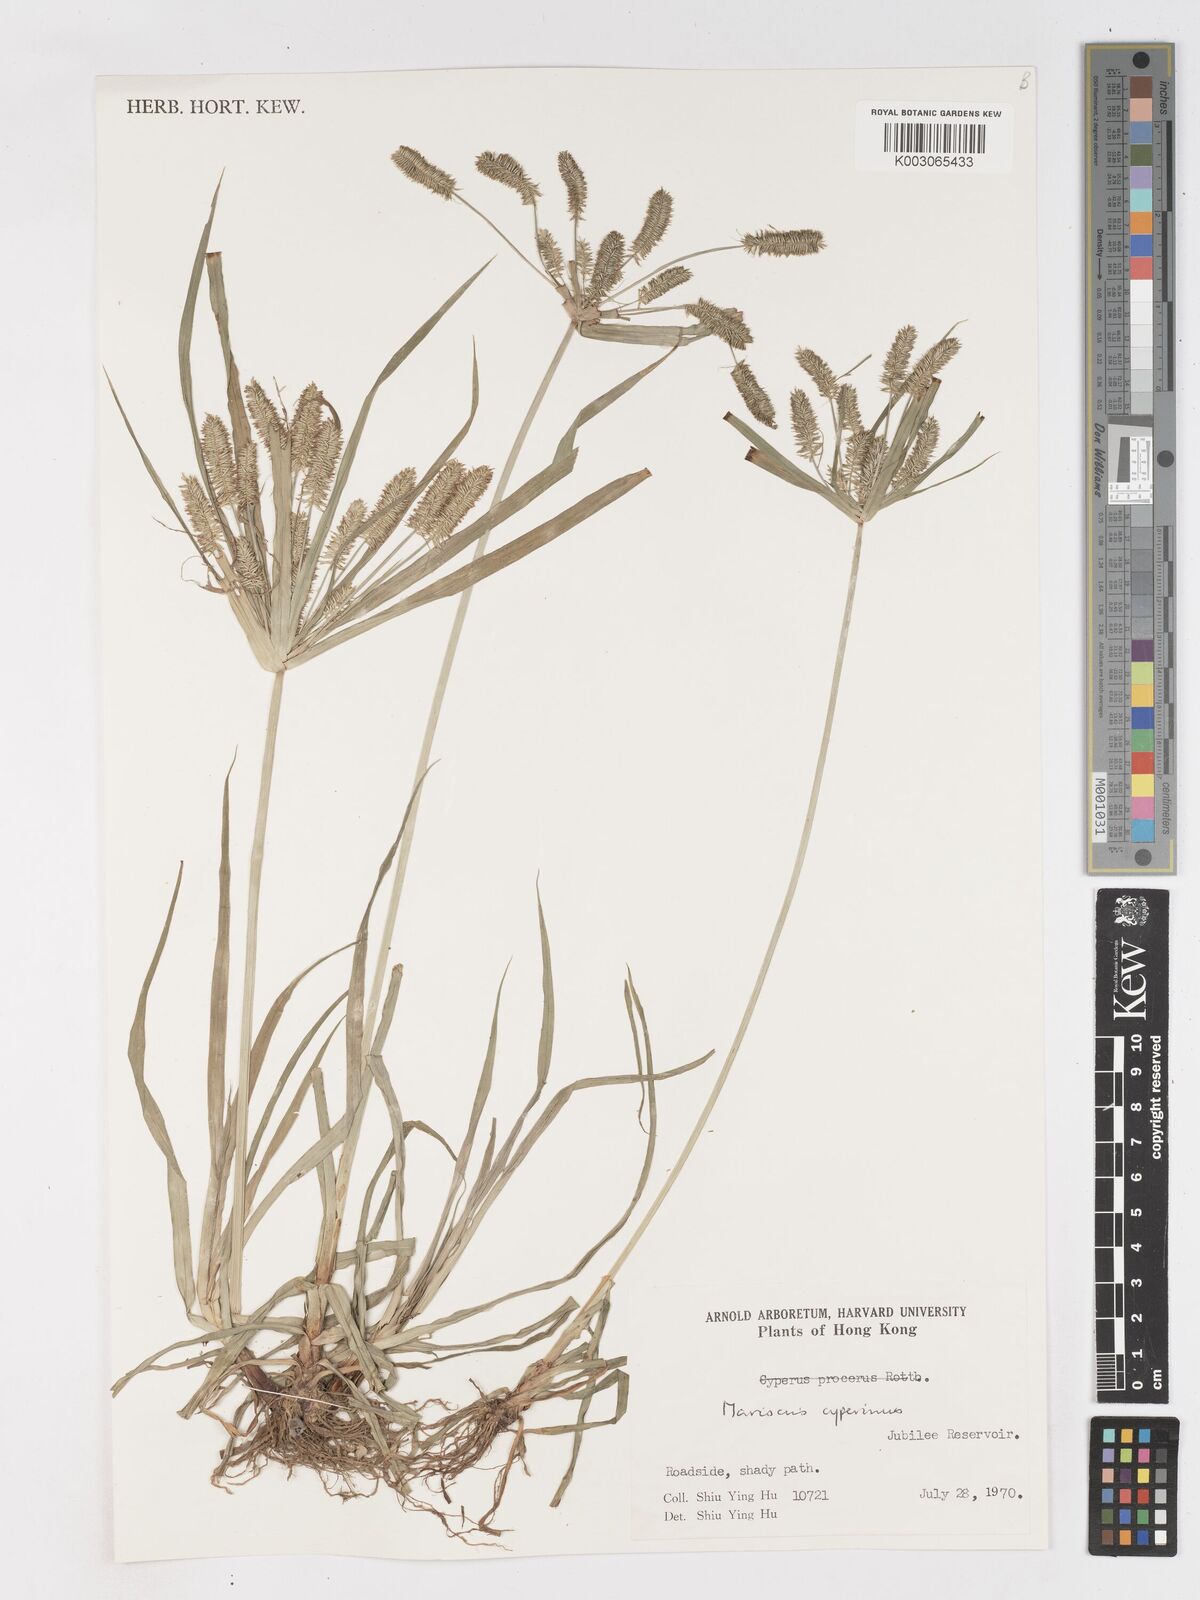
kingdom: Plantae
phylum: Tracheophyta
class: Liliopsida
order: Poales
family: Cyperaceae
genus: Cyperus
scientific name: Cyperus cyperinus
